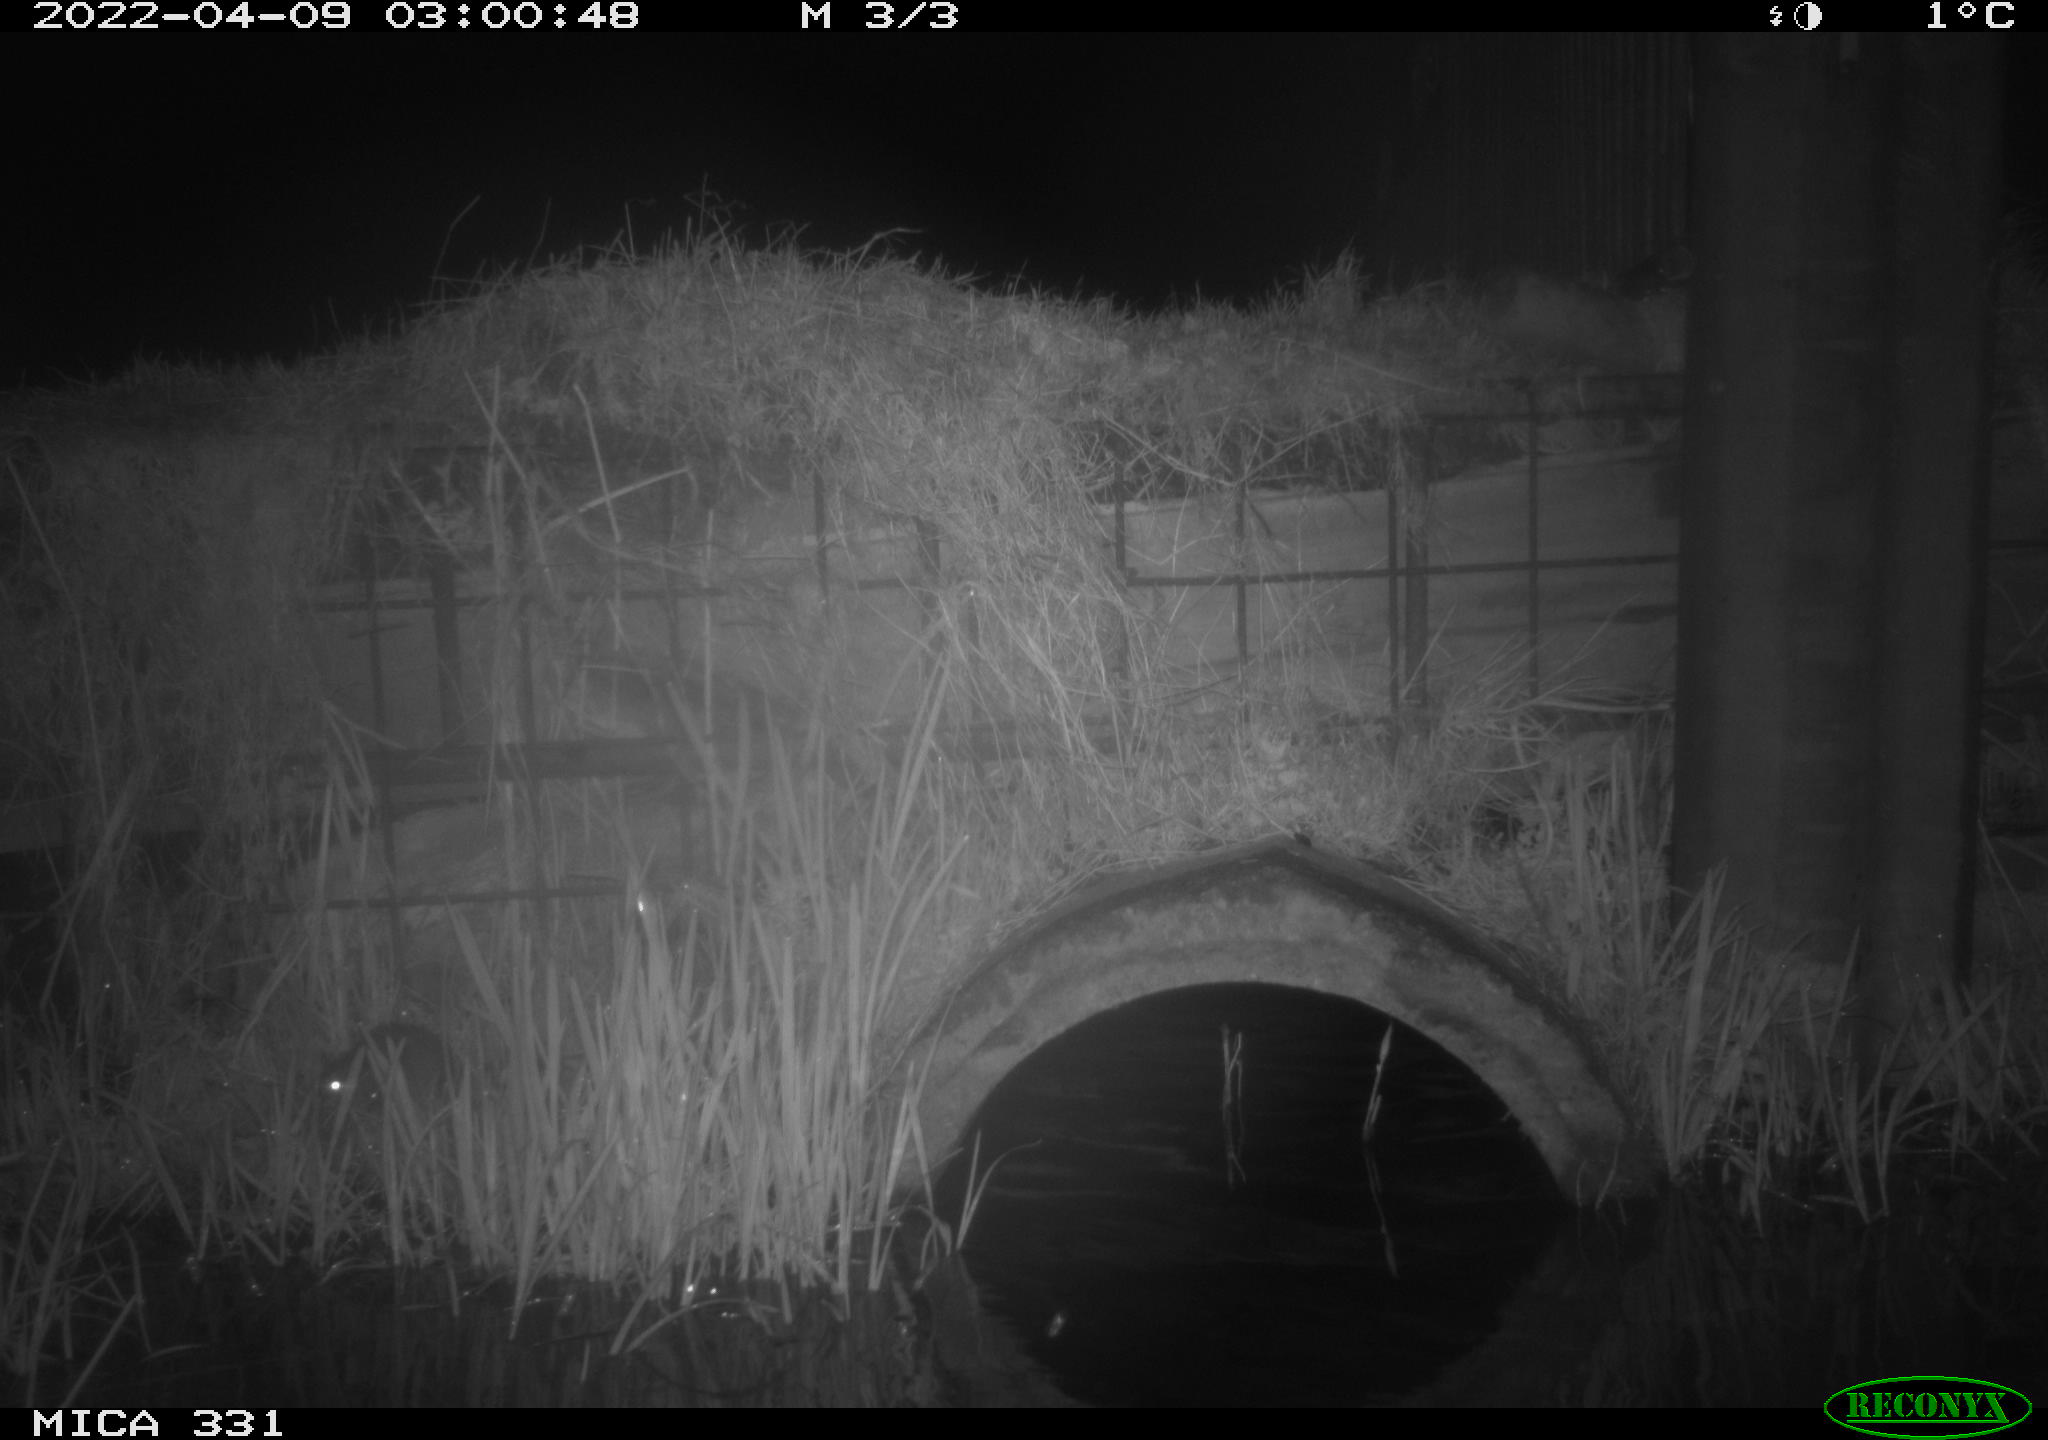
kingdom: Animalia
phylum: Chordata
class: Mammalia
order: Rodentia
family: Muridae
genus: Rattus
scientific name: Rattus norvegicus
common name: Brown rat
